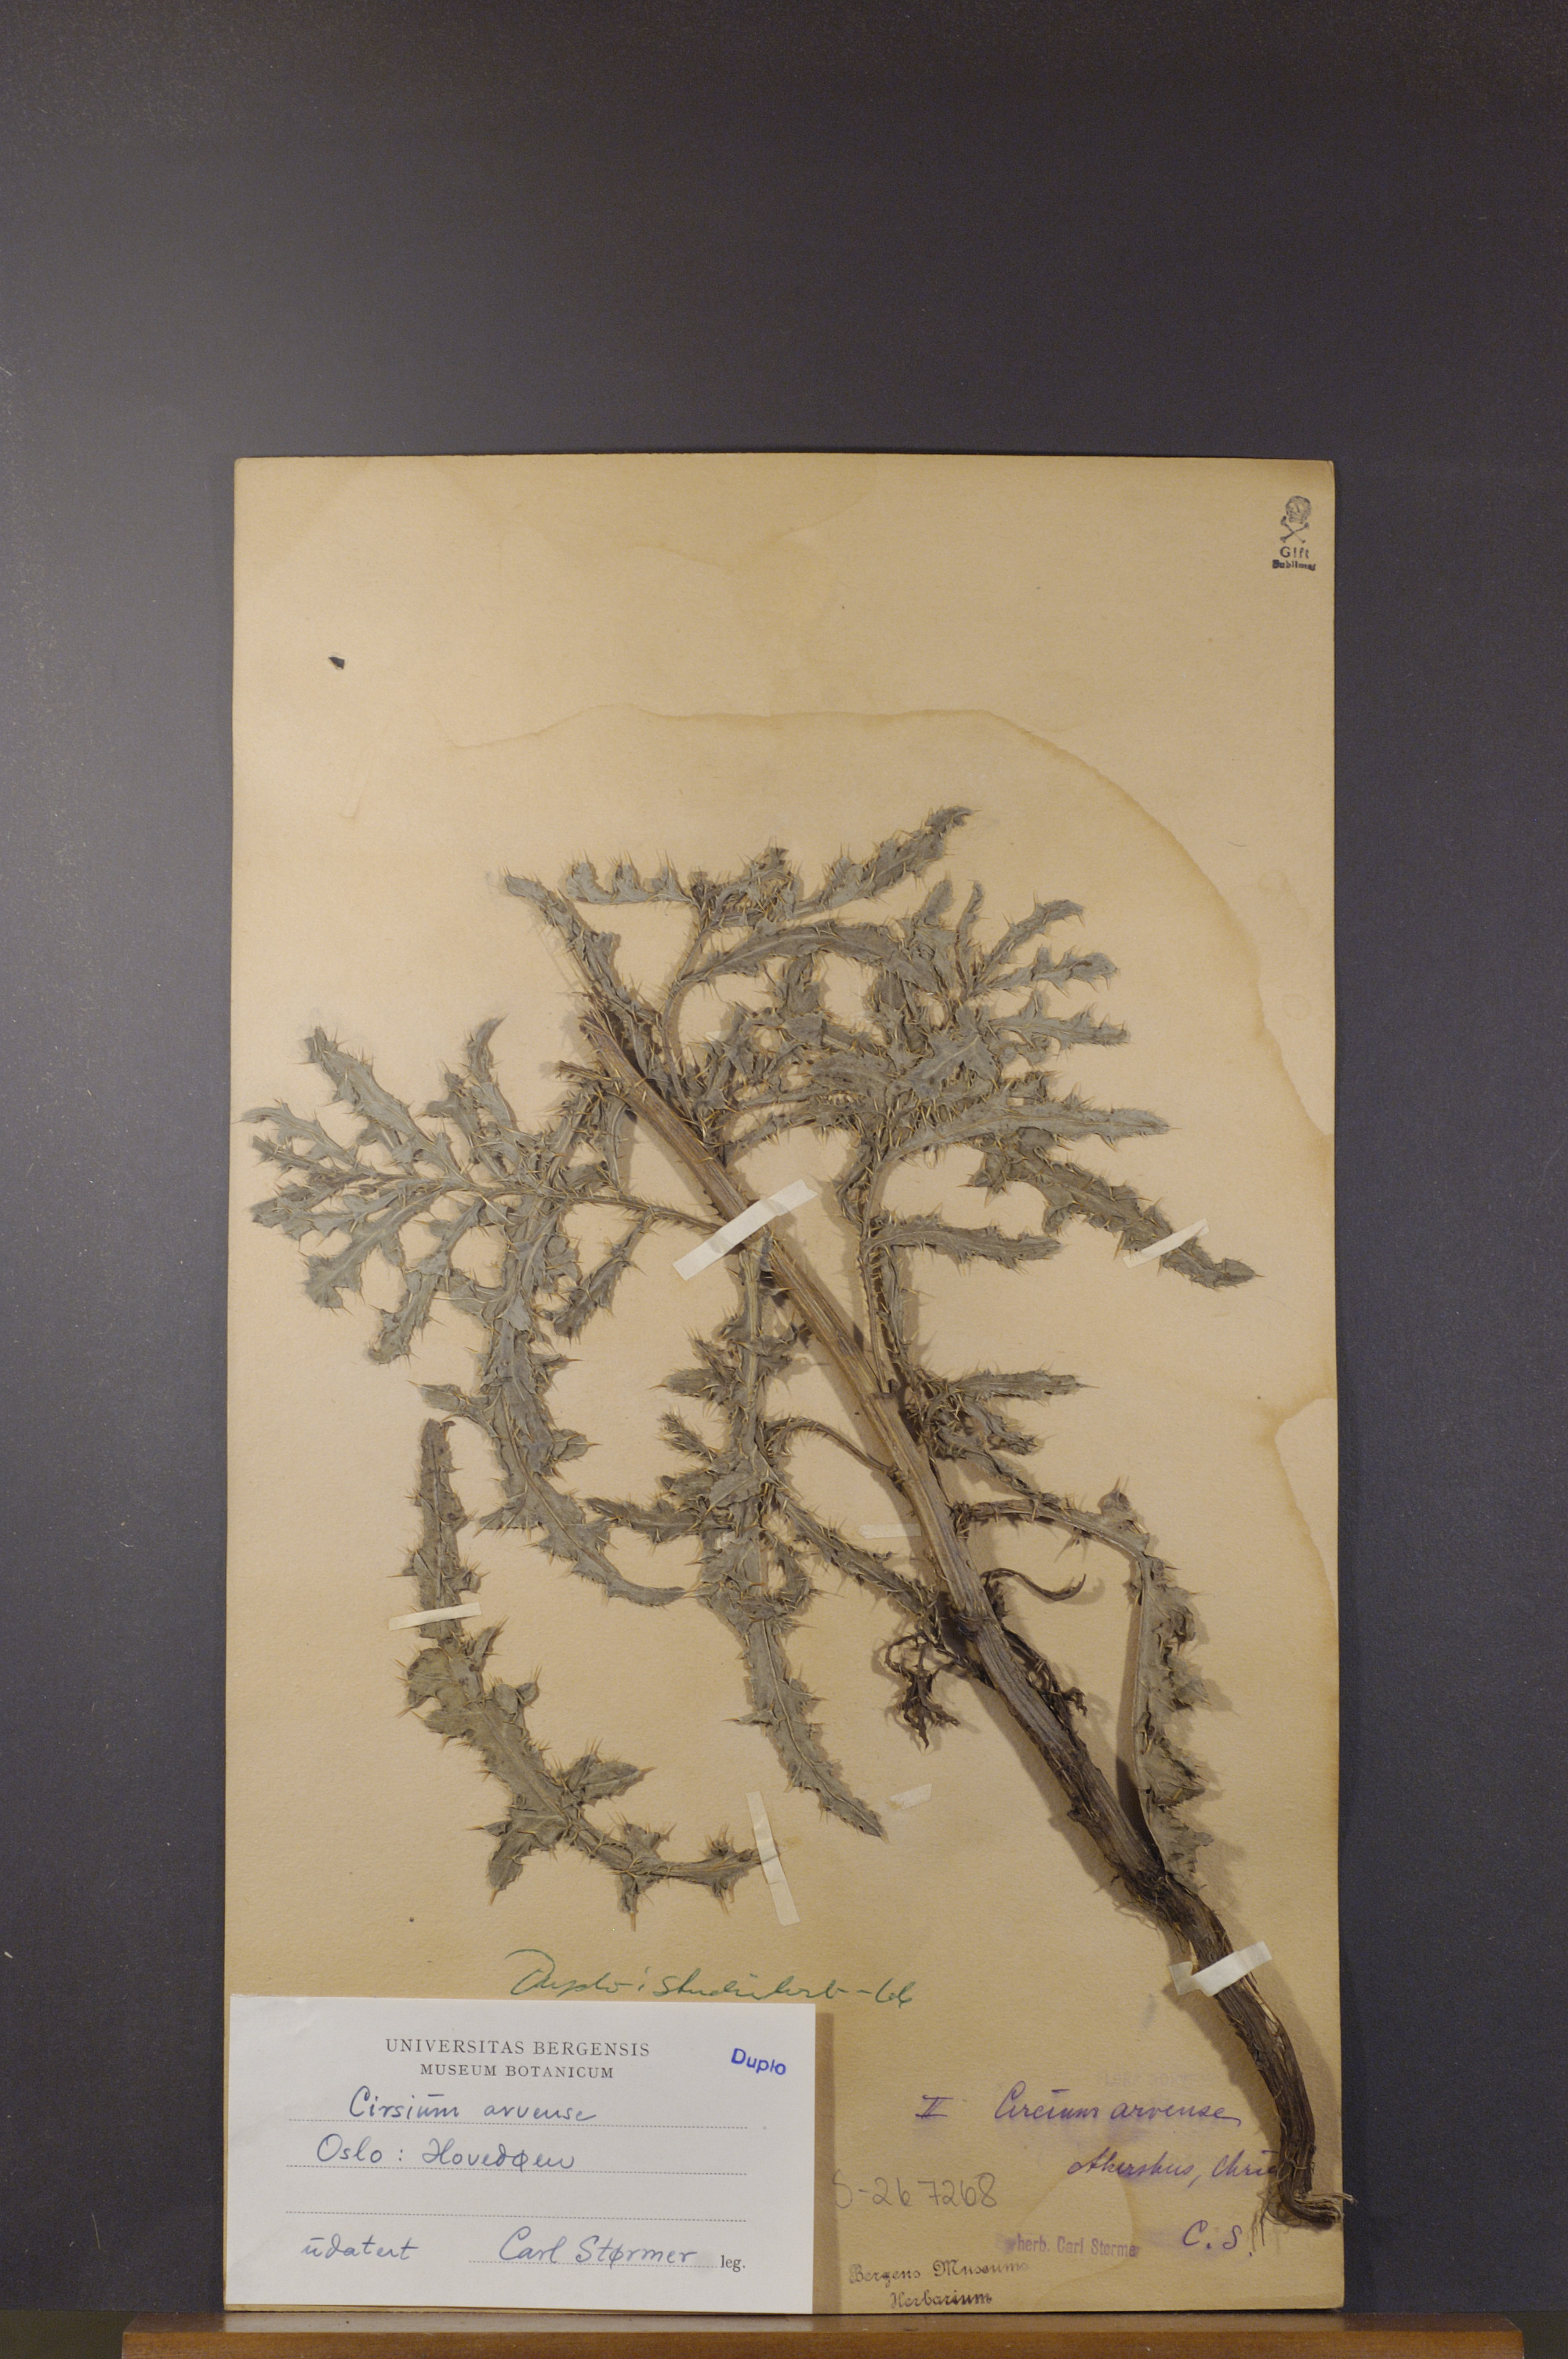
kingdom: Plantae
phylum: Tracheophyta
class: Magnoliopsida
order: Asterales
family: Asteraceae
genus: Cirsium
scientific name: Cirsium arvense
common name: Creeping thistle
